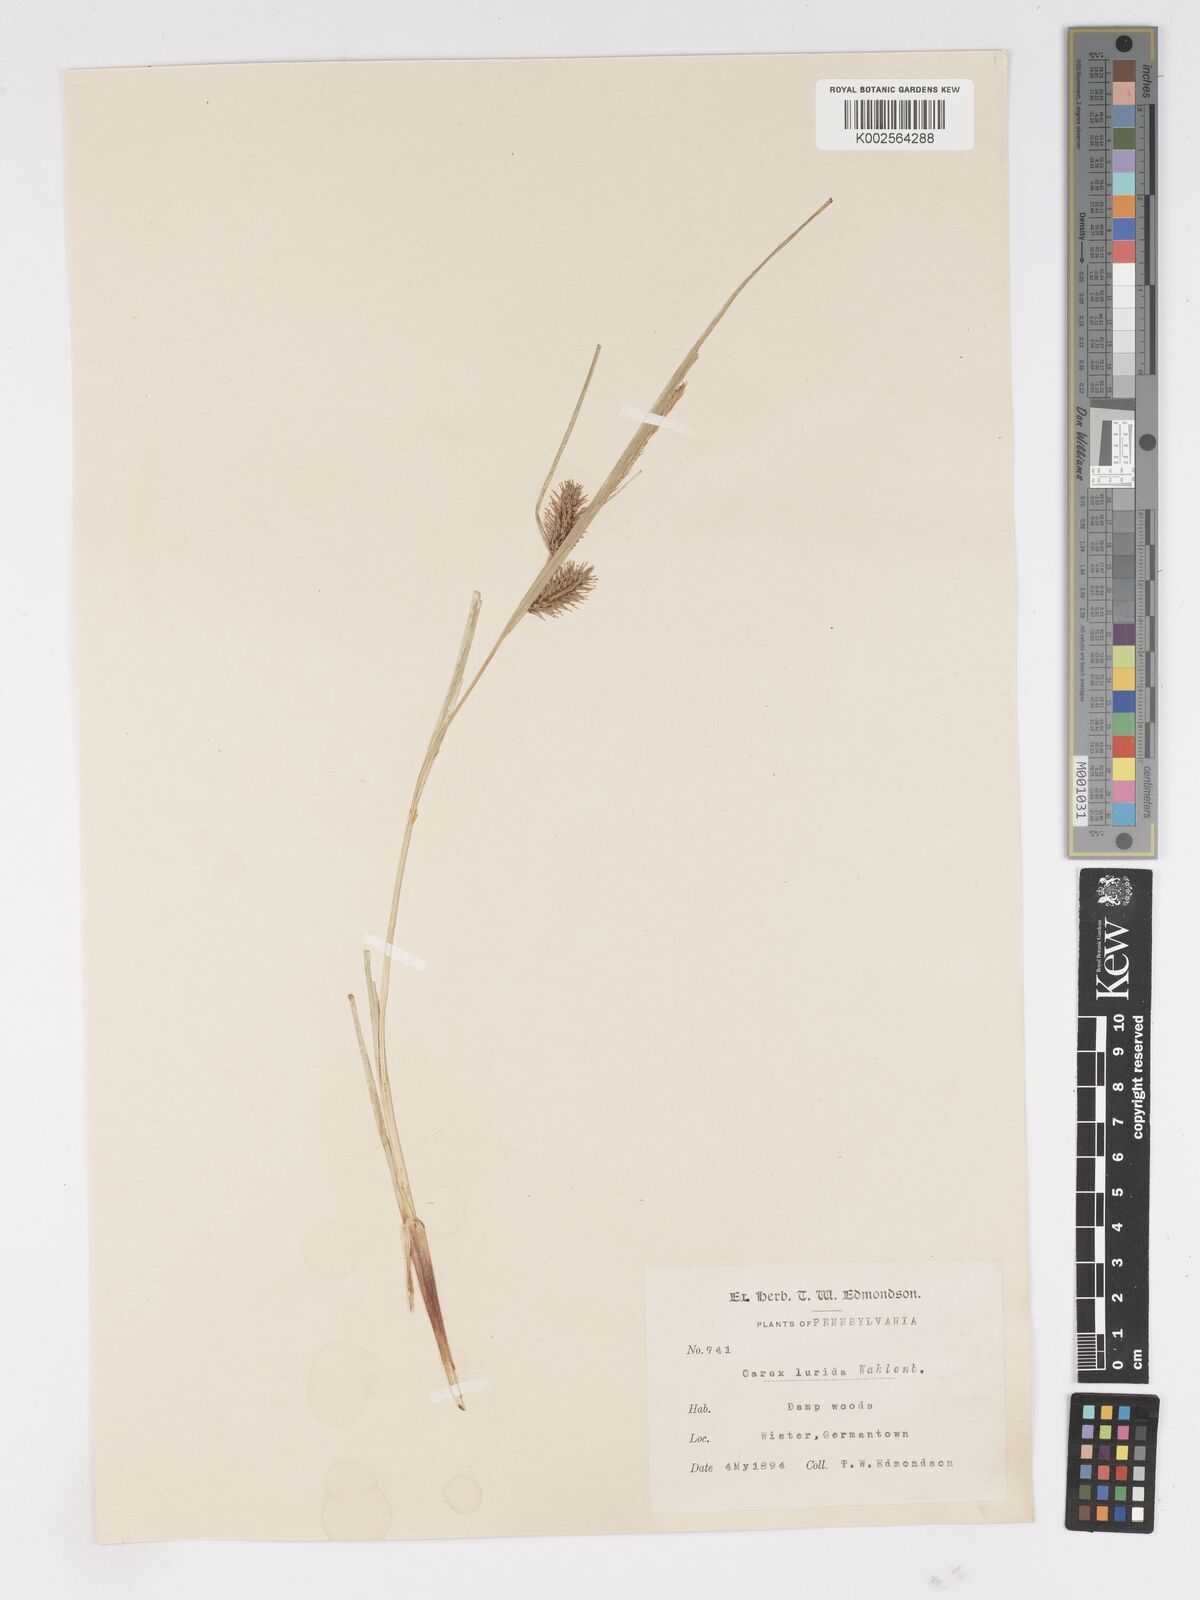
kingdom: Plantae
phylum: Tracheophyta
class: Liliopsida
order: Poales
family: Cyperaceae
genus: Carex
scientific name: Carex lurida
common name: Sallow sedge
